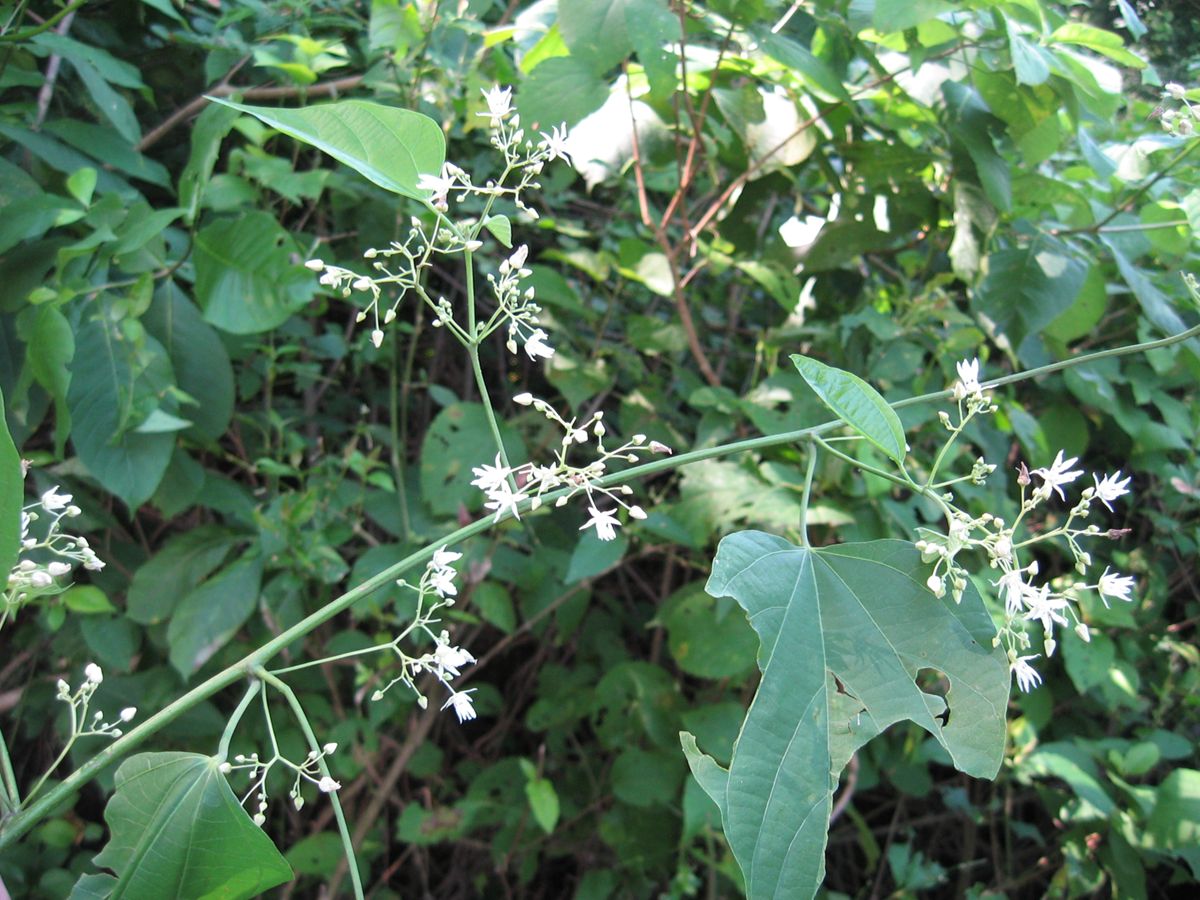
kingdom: Plantae
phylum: Tracheophyta
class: Magnoliopsida
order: Malvales
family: Malvaceae
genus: Byttneria
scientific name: Byttneria catalpifolia
